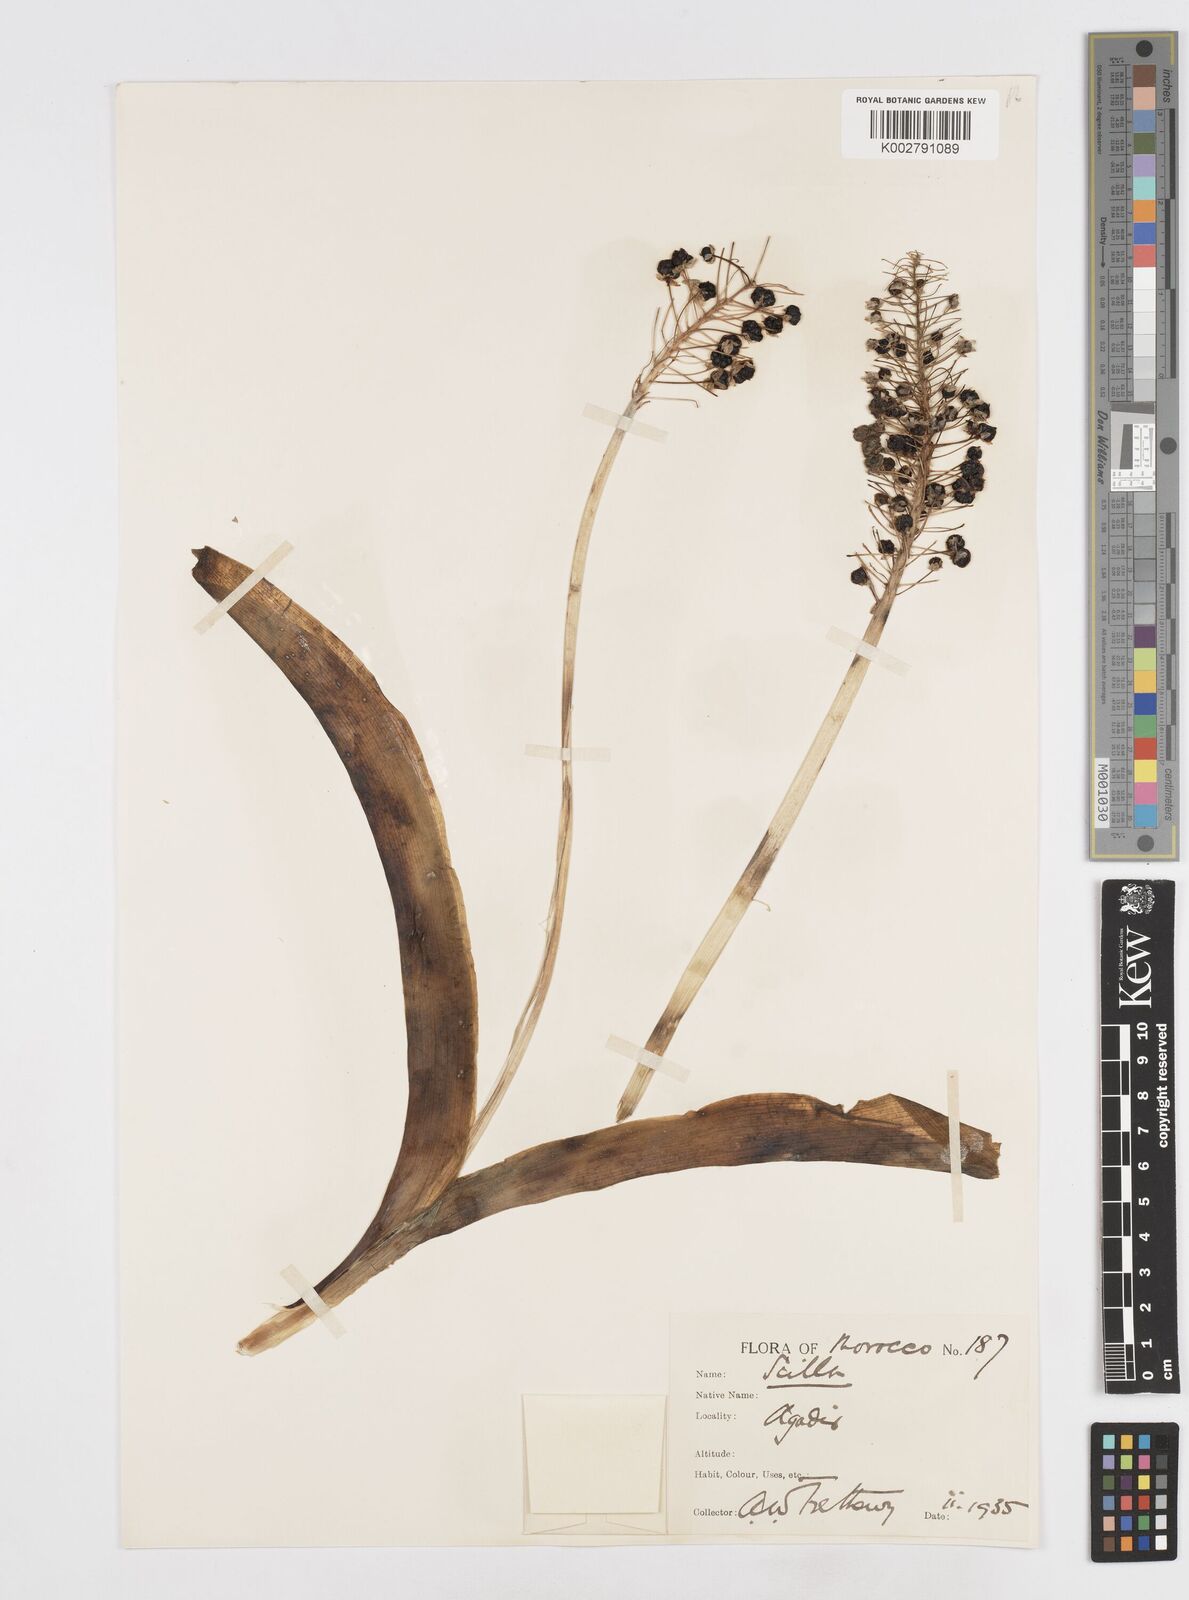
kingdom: Plantae
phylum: Tracheophyta
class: Liliopsida
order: Asparagales
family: Asparagaceae
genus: Scilla
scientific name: Scilla latifolia
